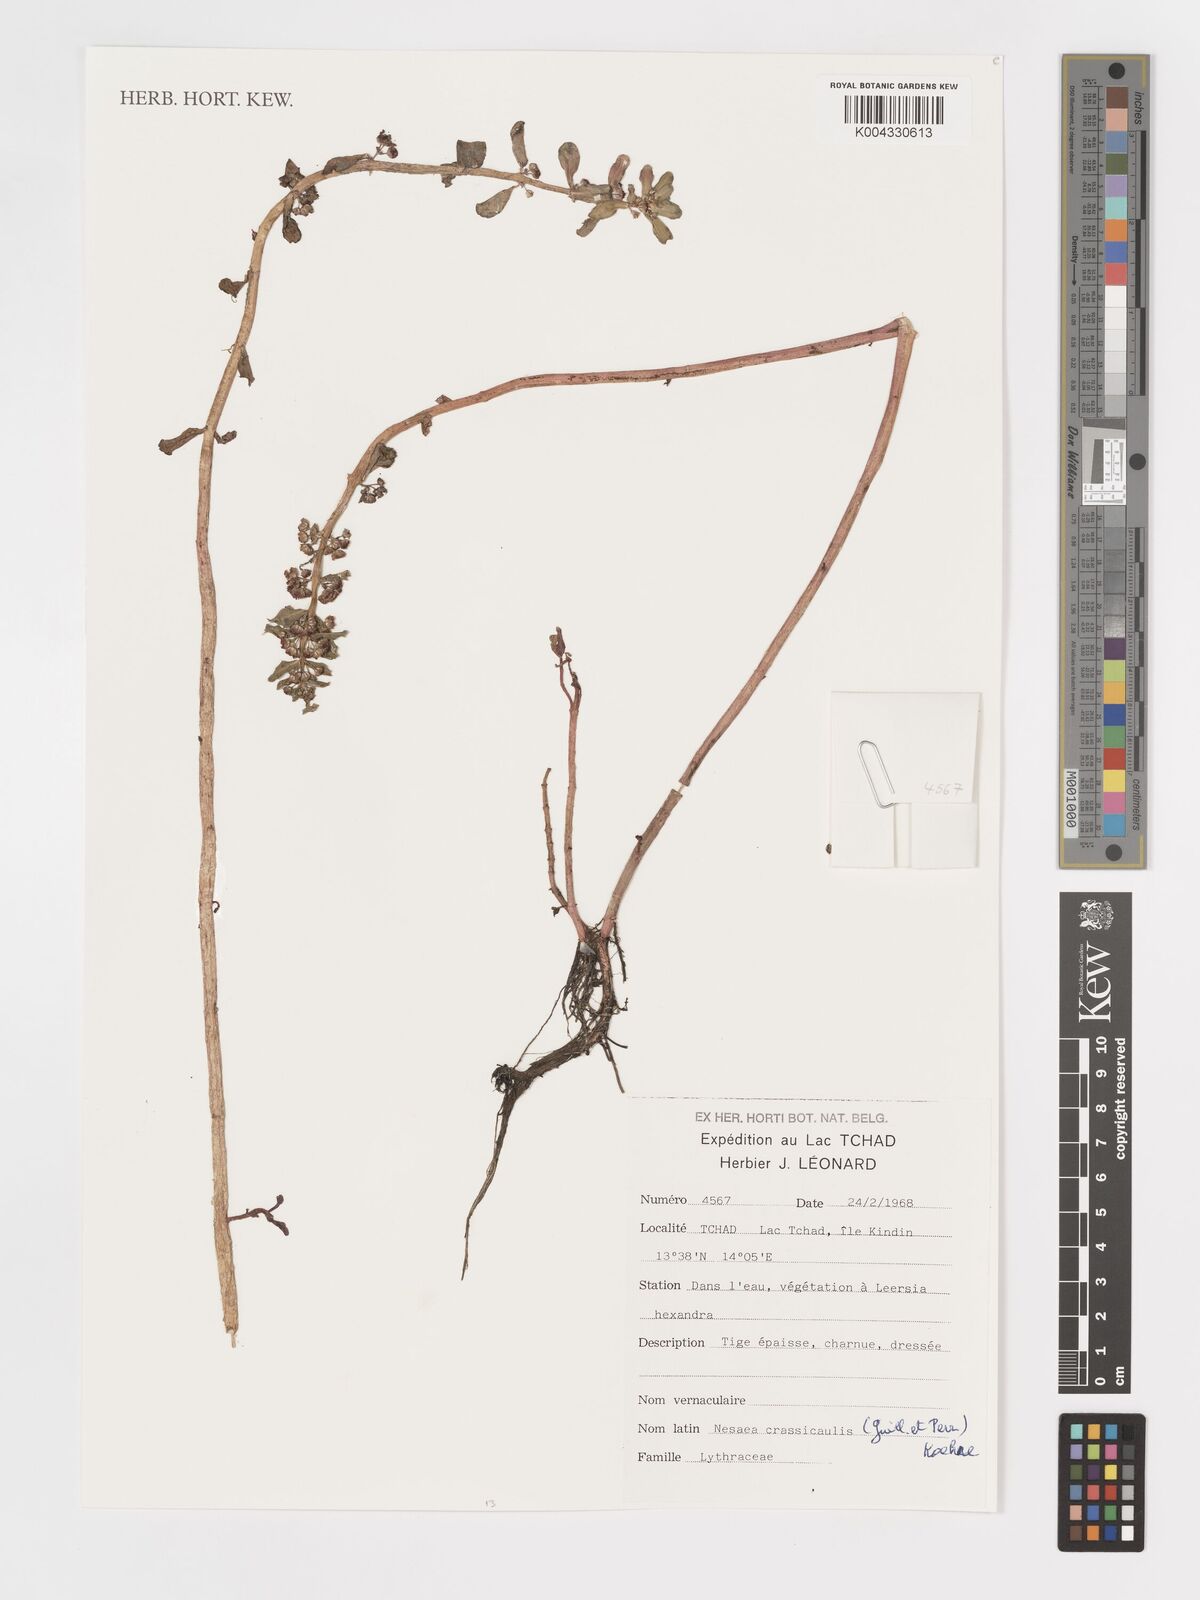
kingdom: Plantae
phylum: Tracheophyta
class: Magnoliopsida
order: Myrtales
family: Lythraceae
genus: Ammannia
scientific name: Ammannia crassicaulis
